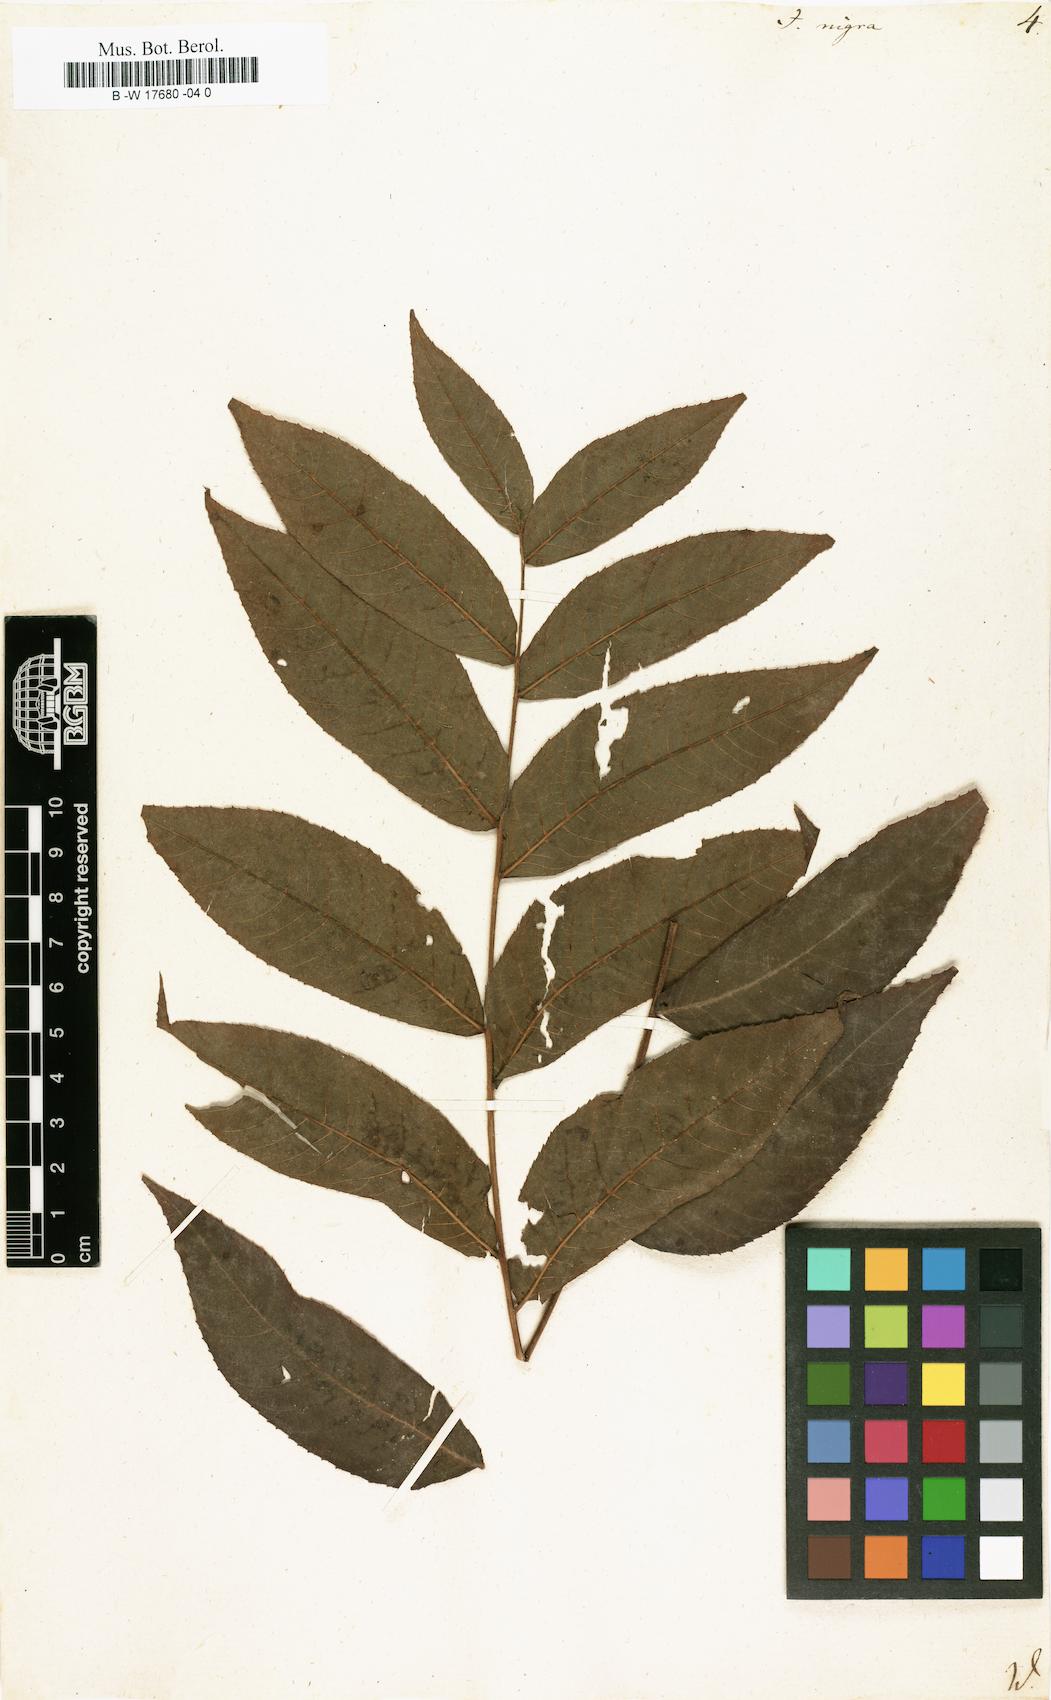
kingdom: Plantae
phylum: Tracheophyta
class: Magnoliopsida
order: Fagales
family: Juglandaceae
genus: Juglans
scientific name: Juglans nigra
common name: Black walnut
